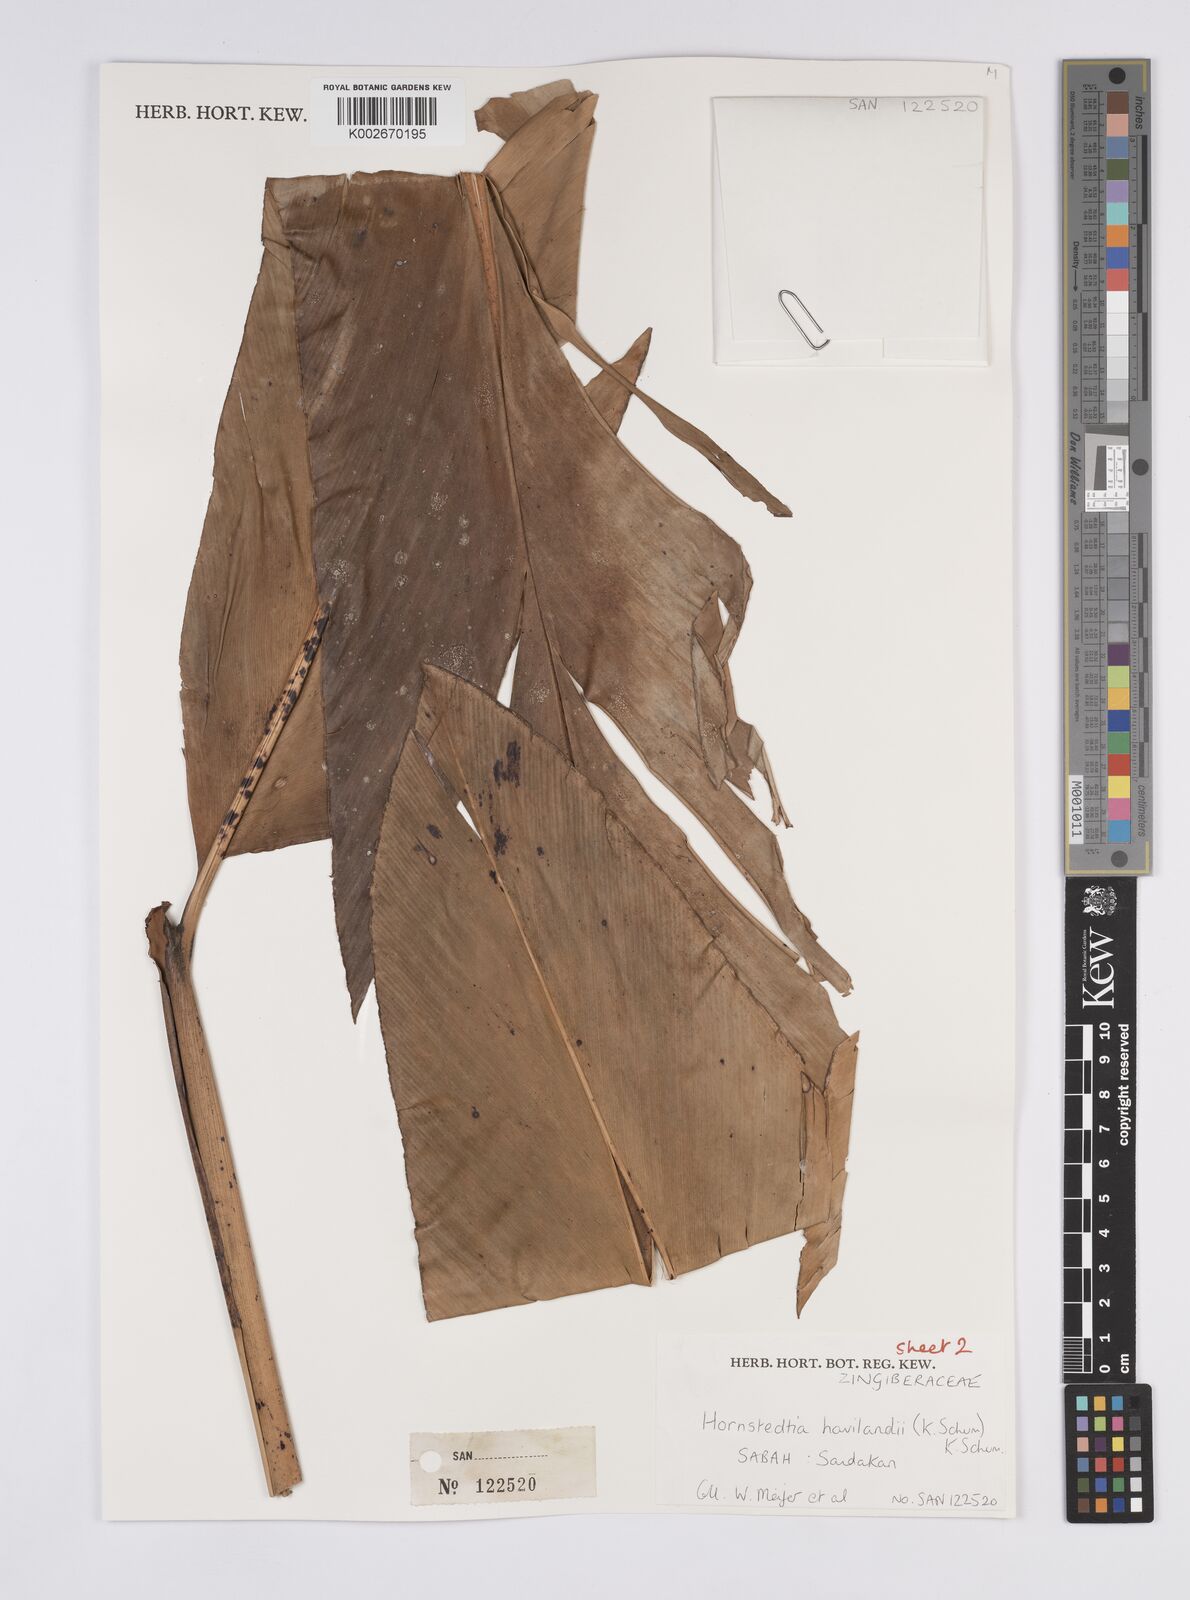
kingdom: Plantae
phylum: Tracheophyta
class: Liliopsida
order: Zingiberales
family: Zingiberaceae
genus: Hornstedtia
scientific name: Hornstedtia havilandii
